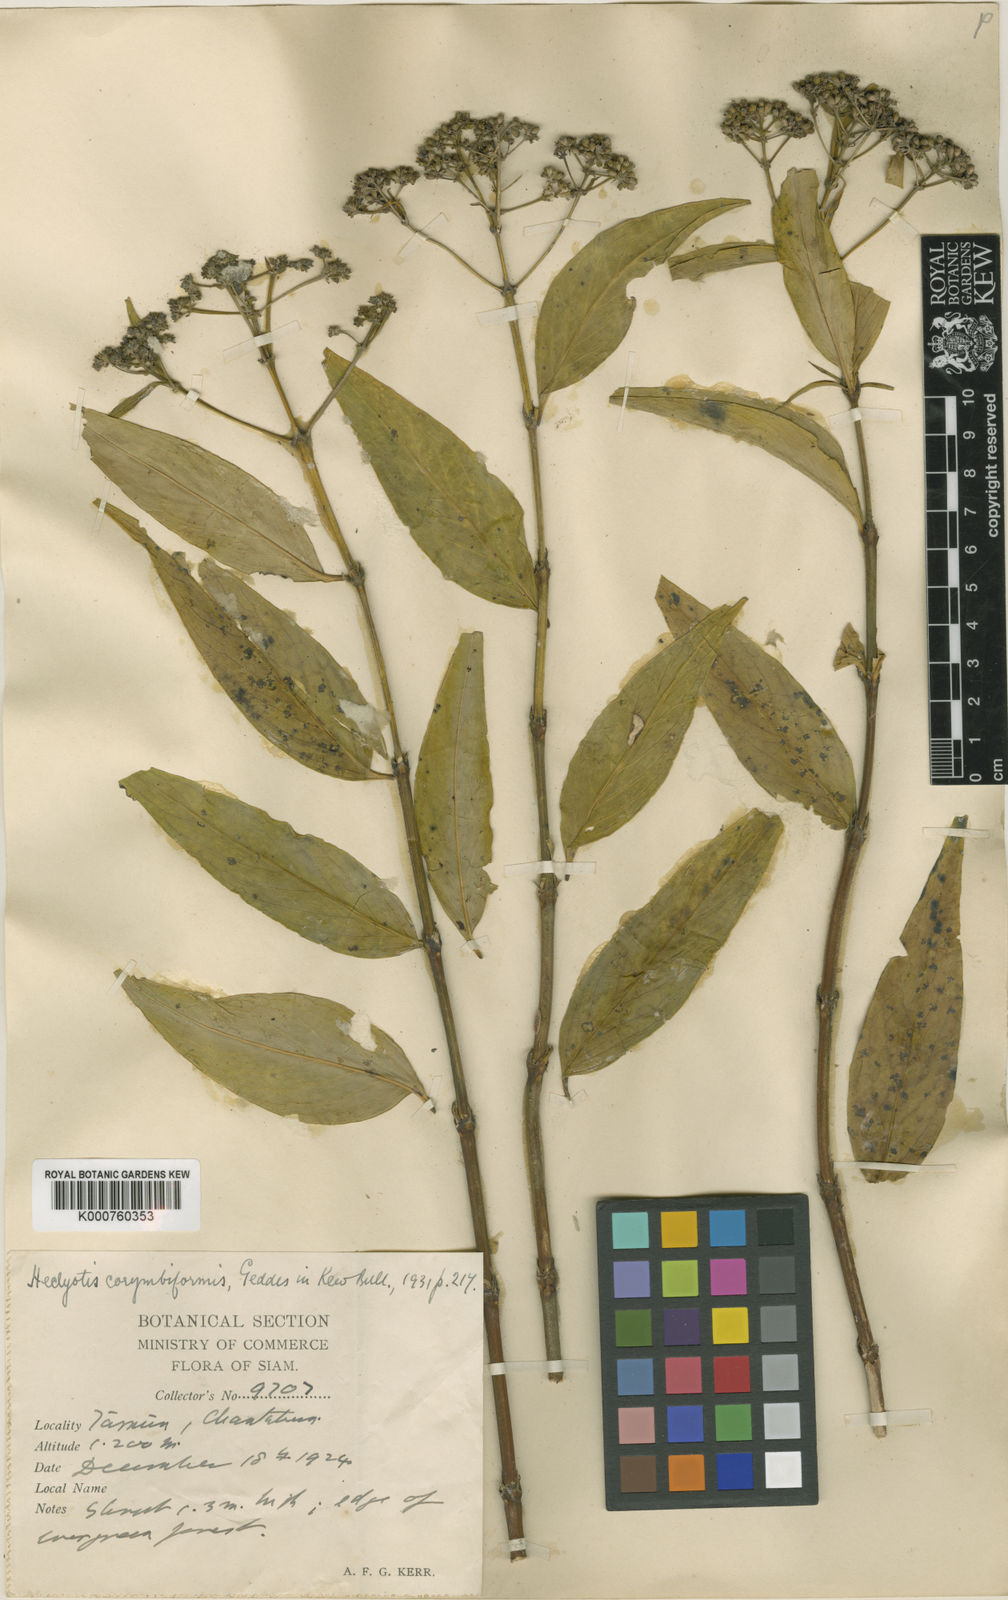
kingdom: Plantae
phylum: Tracheophyta
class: Magnoliopsida
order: Gentianales
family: Rubiaceae
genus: Hedyotis
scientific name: Hedyotis pruinosa
